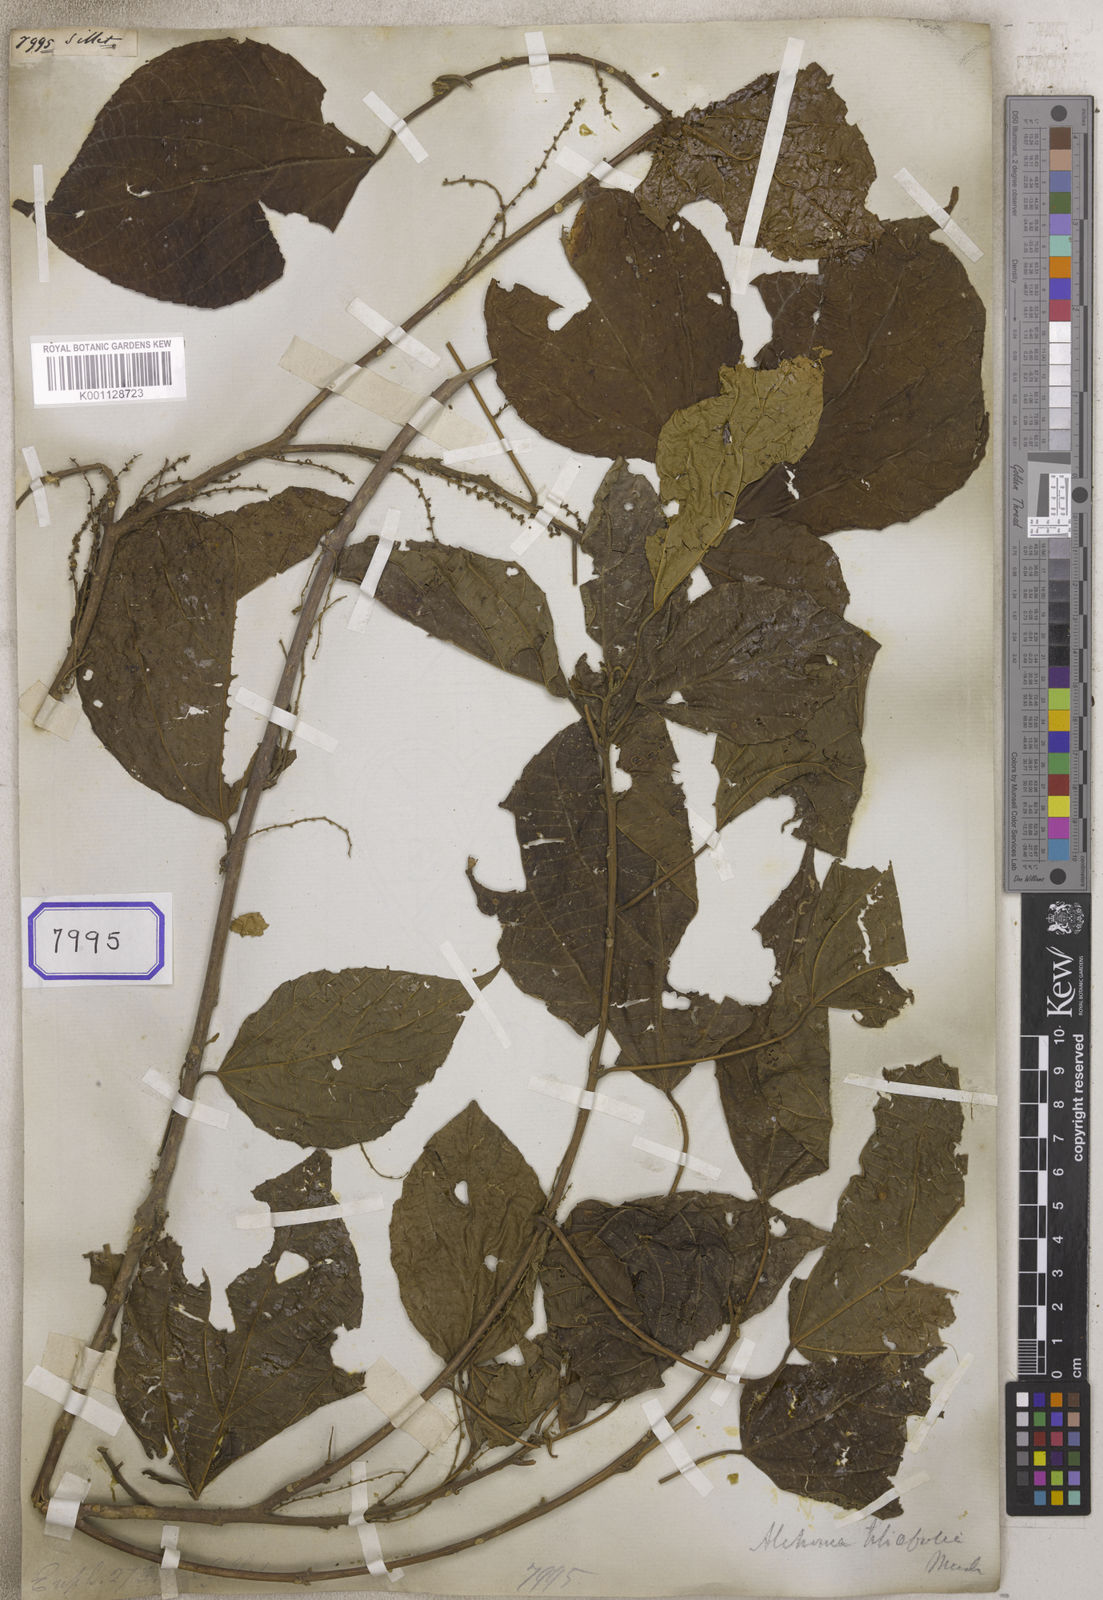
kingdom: Plantae
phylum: Tracheophyta
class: Magnoliopsida
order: Malpighiales
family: Euphorbiaceae
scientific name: Euphorbiaceae
